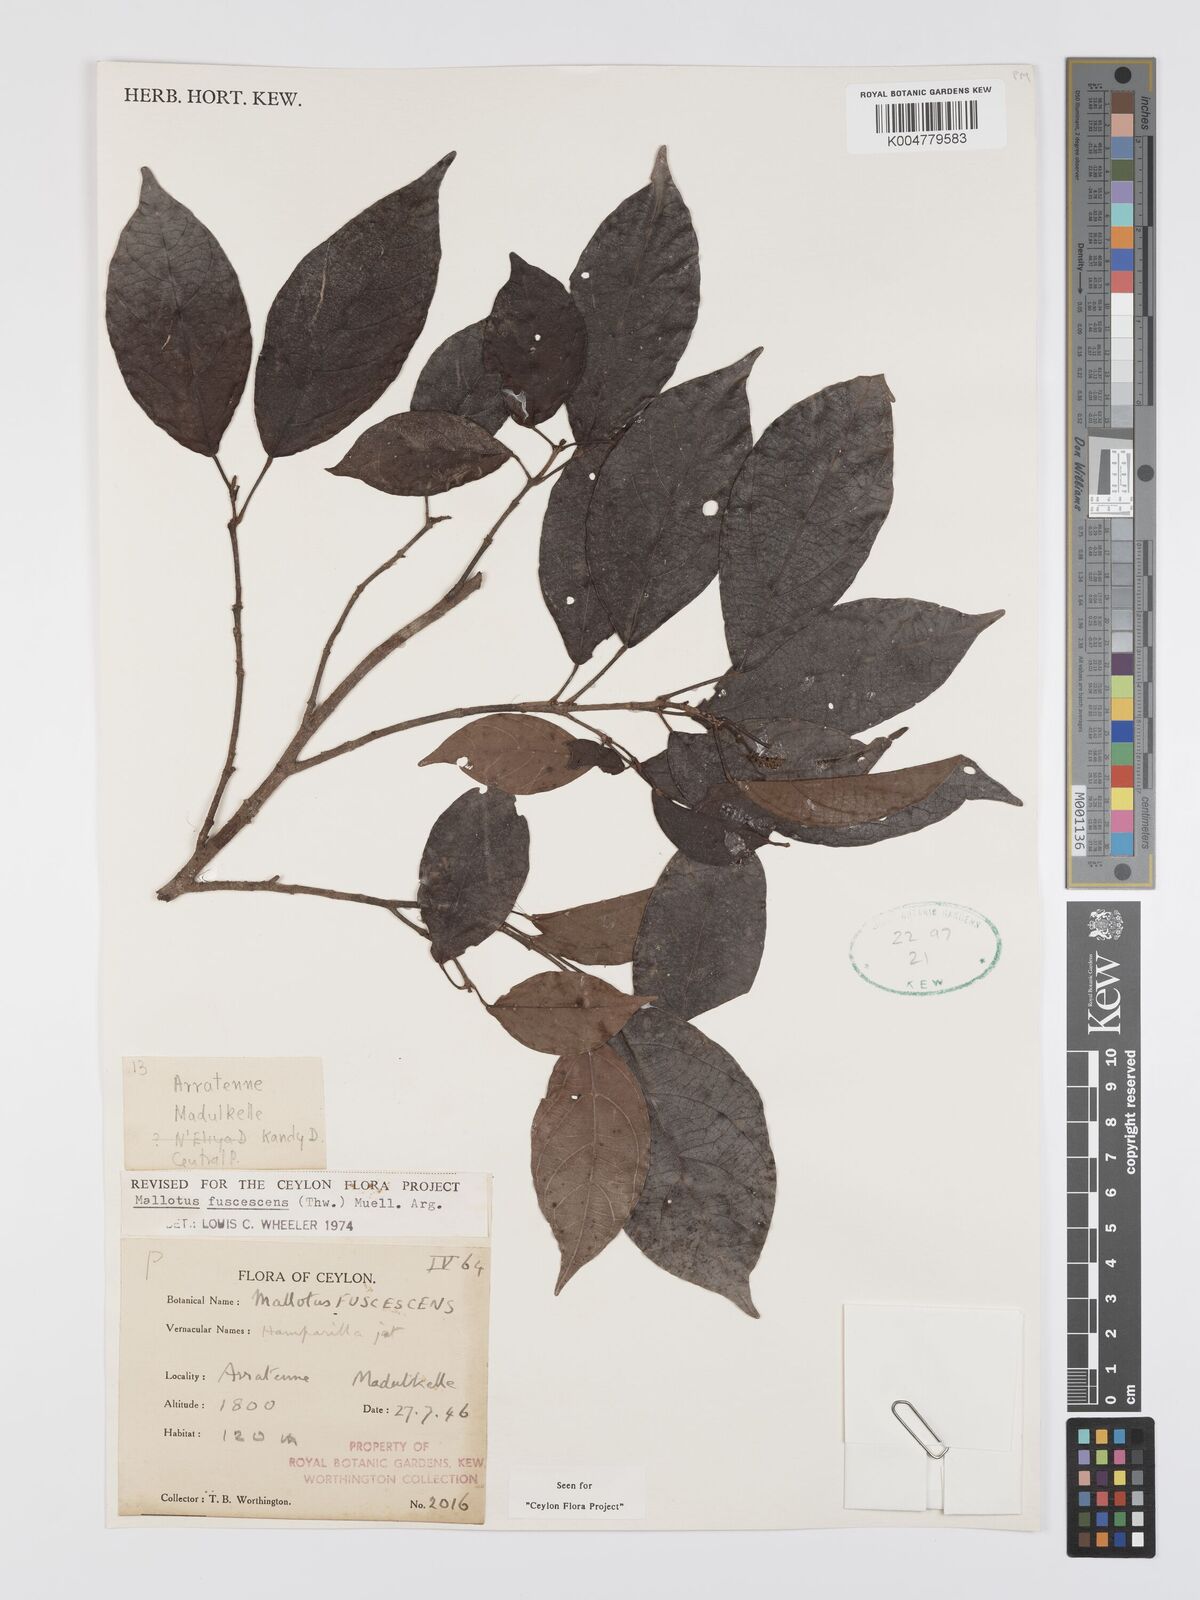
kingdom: Plantae
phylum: Tracheophyta
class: Magnoliopsida
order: Malpighiales
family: Euphorbiaceae
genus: Mallotus
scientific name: Mallotus fuscescens
